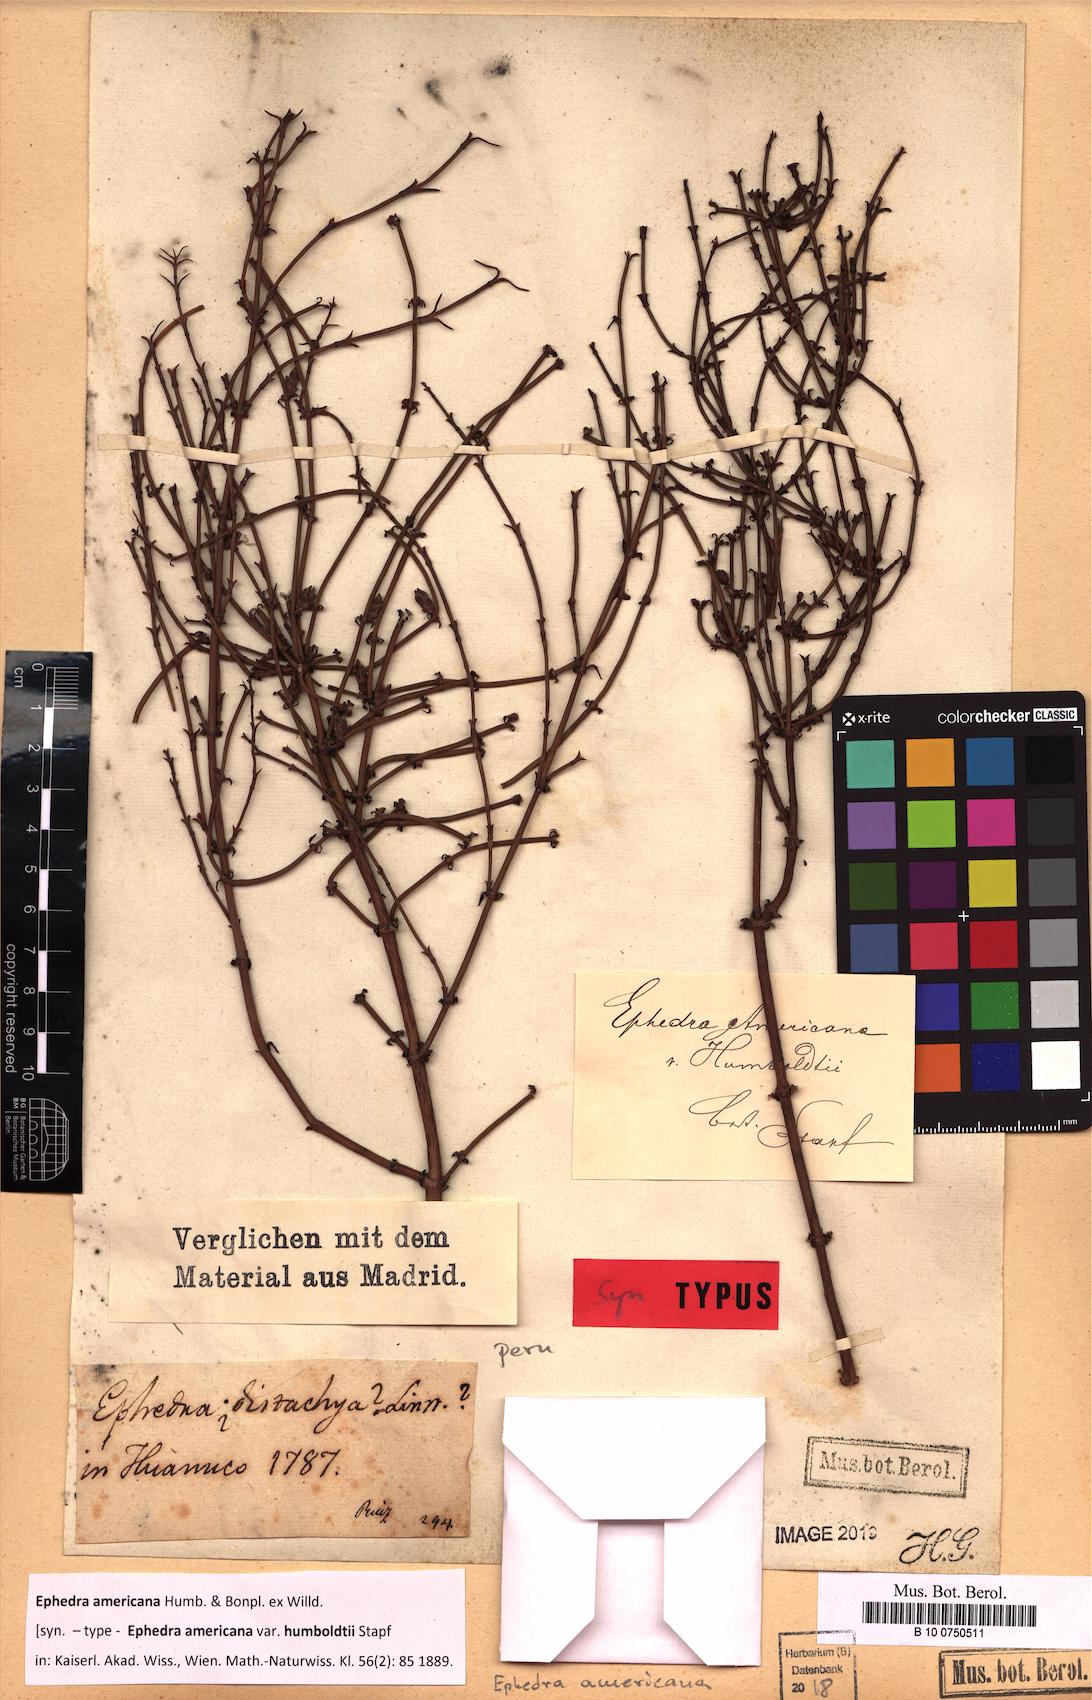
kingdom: Plantae
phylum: Tracheophyta
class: Gnetopsida
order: Ephedrales
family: Ephedraceae
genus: Ephedra
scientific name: Ephedra americana
